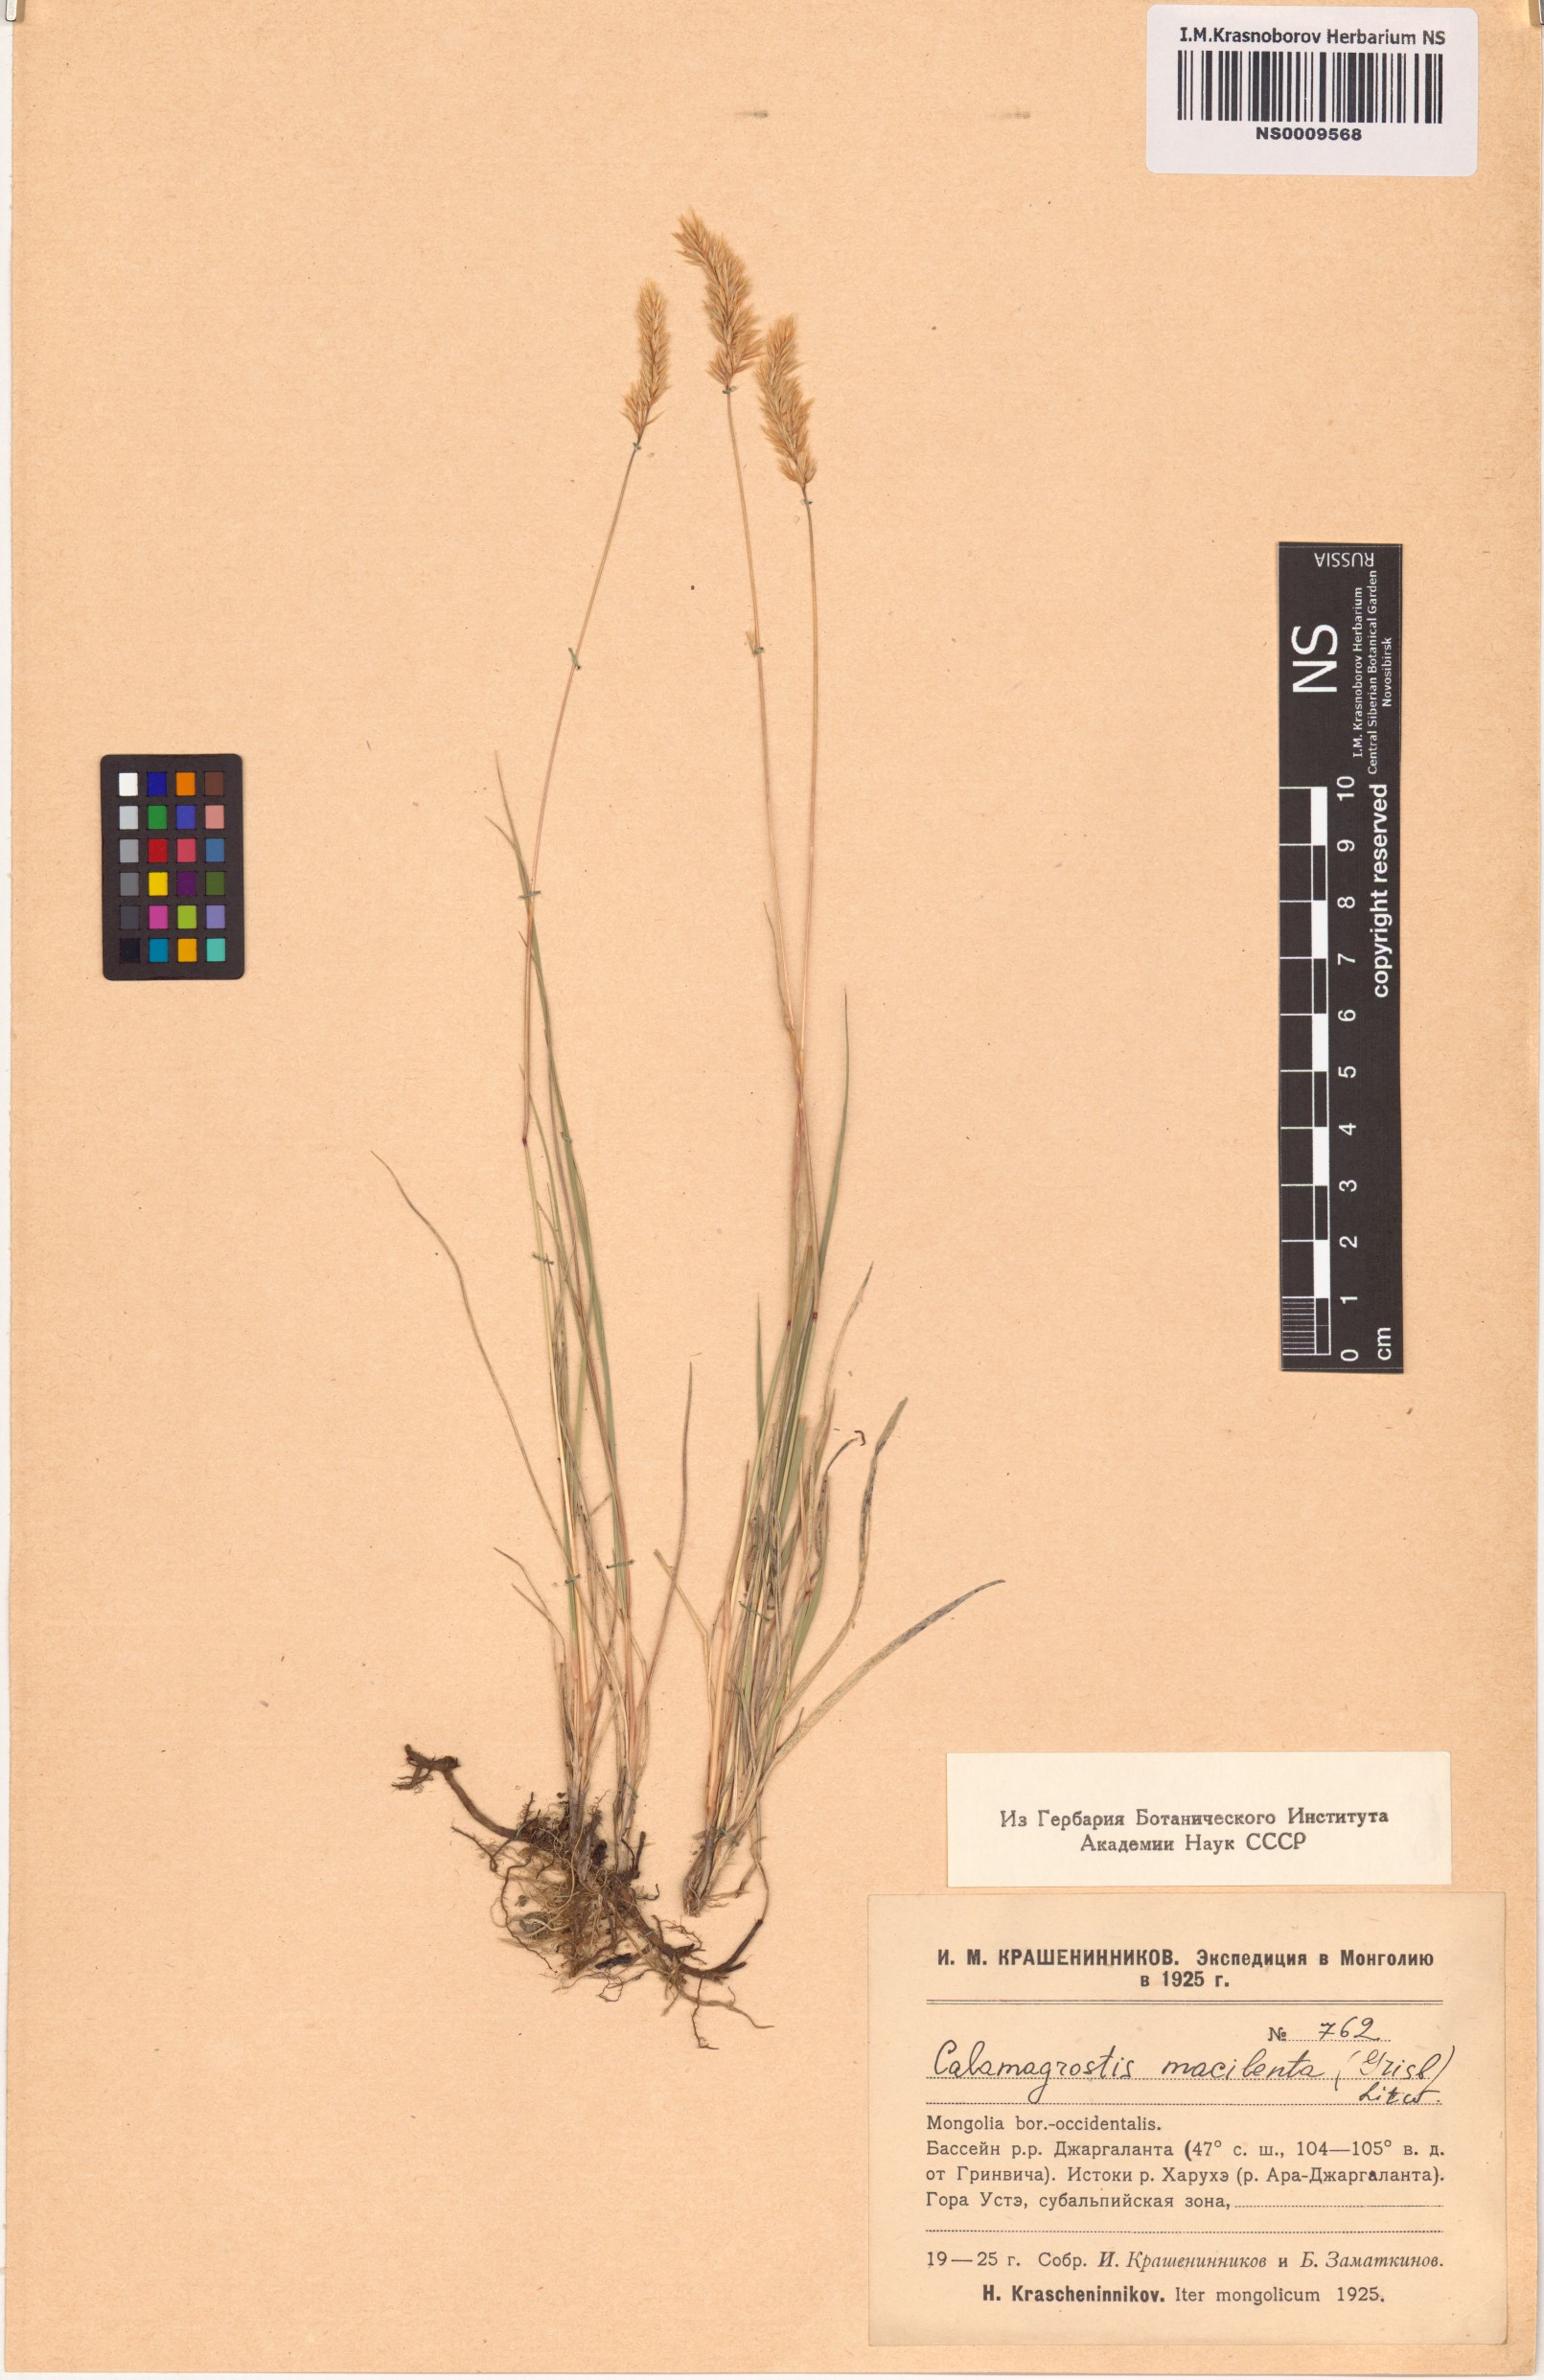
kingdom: Plantae
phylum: Tracheophyta
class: Liliopsida
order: Poales
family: Poaceae
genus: Calamagrostis
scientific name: Calamagrostis macilenta
